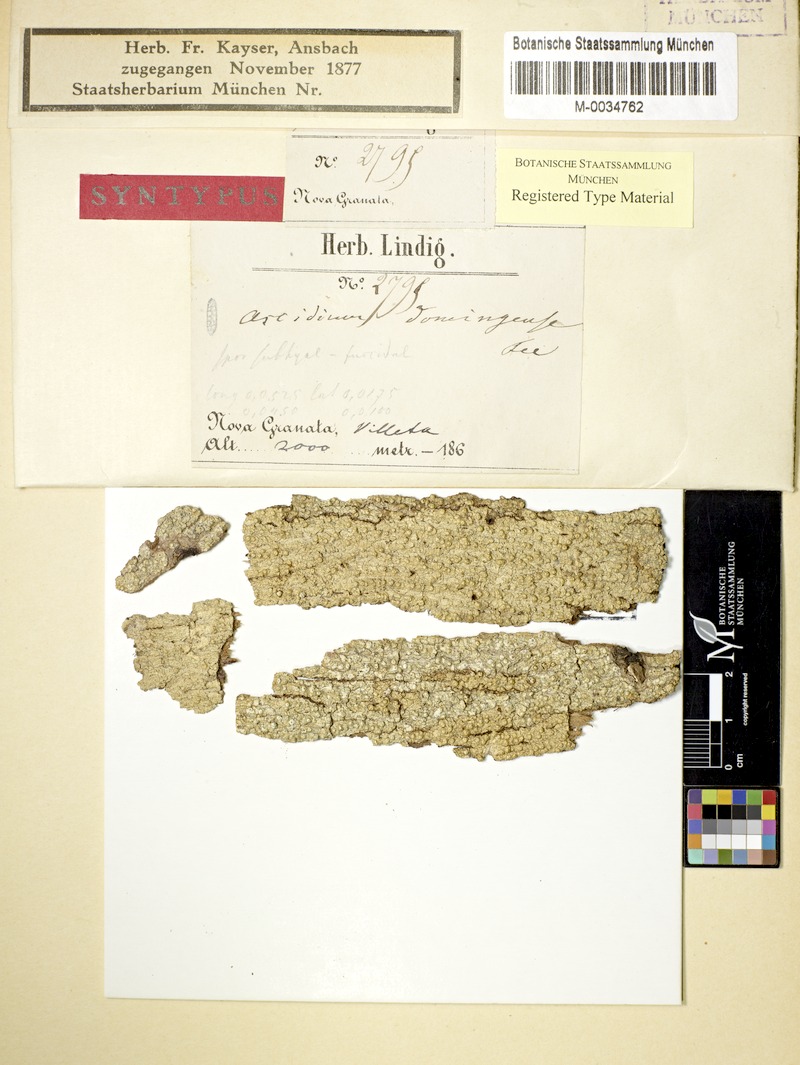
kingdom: Fungi
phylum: Ascomycota
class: Lecanoromycetes
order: Ostropales
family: Graphidaceae
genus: Ocellularia
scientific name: Ocellularia domingensis
